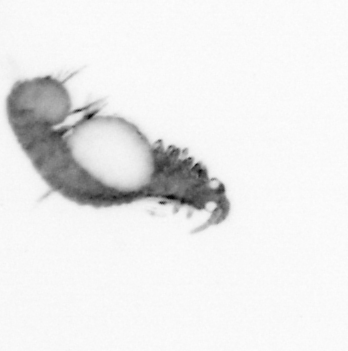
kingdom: Animalia
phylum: Annelida
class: Polychaeta
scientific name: Polychaeta
